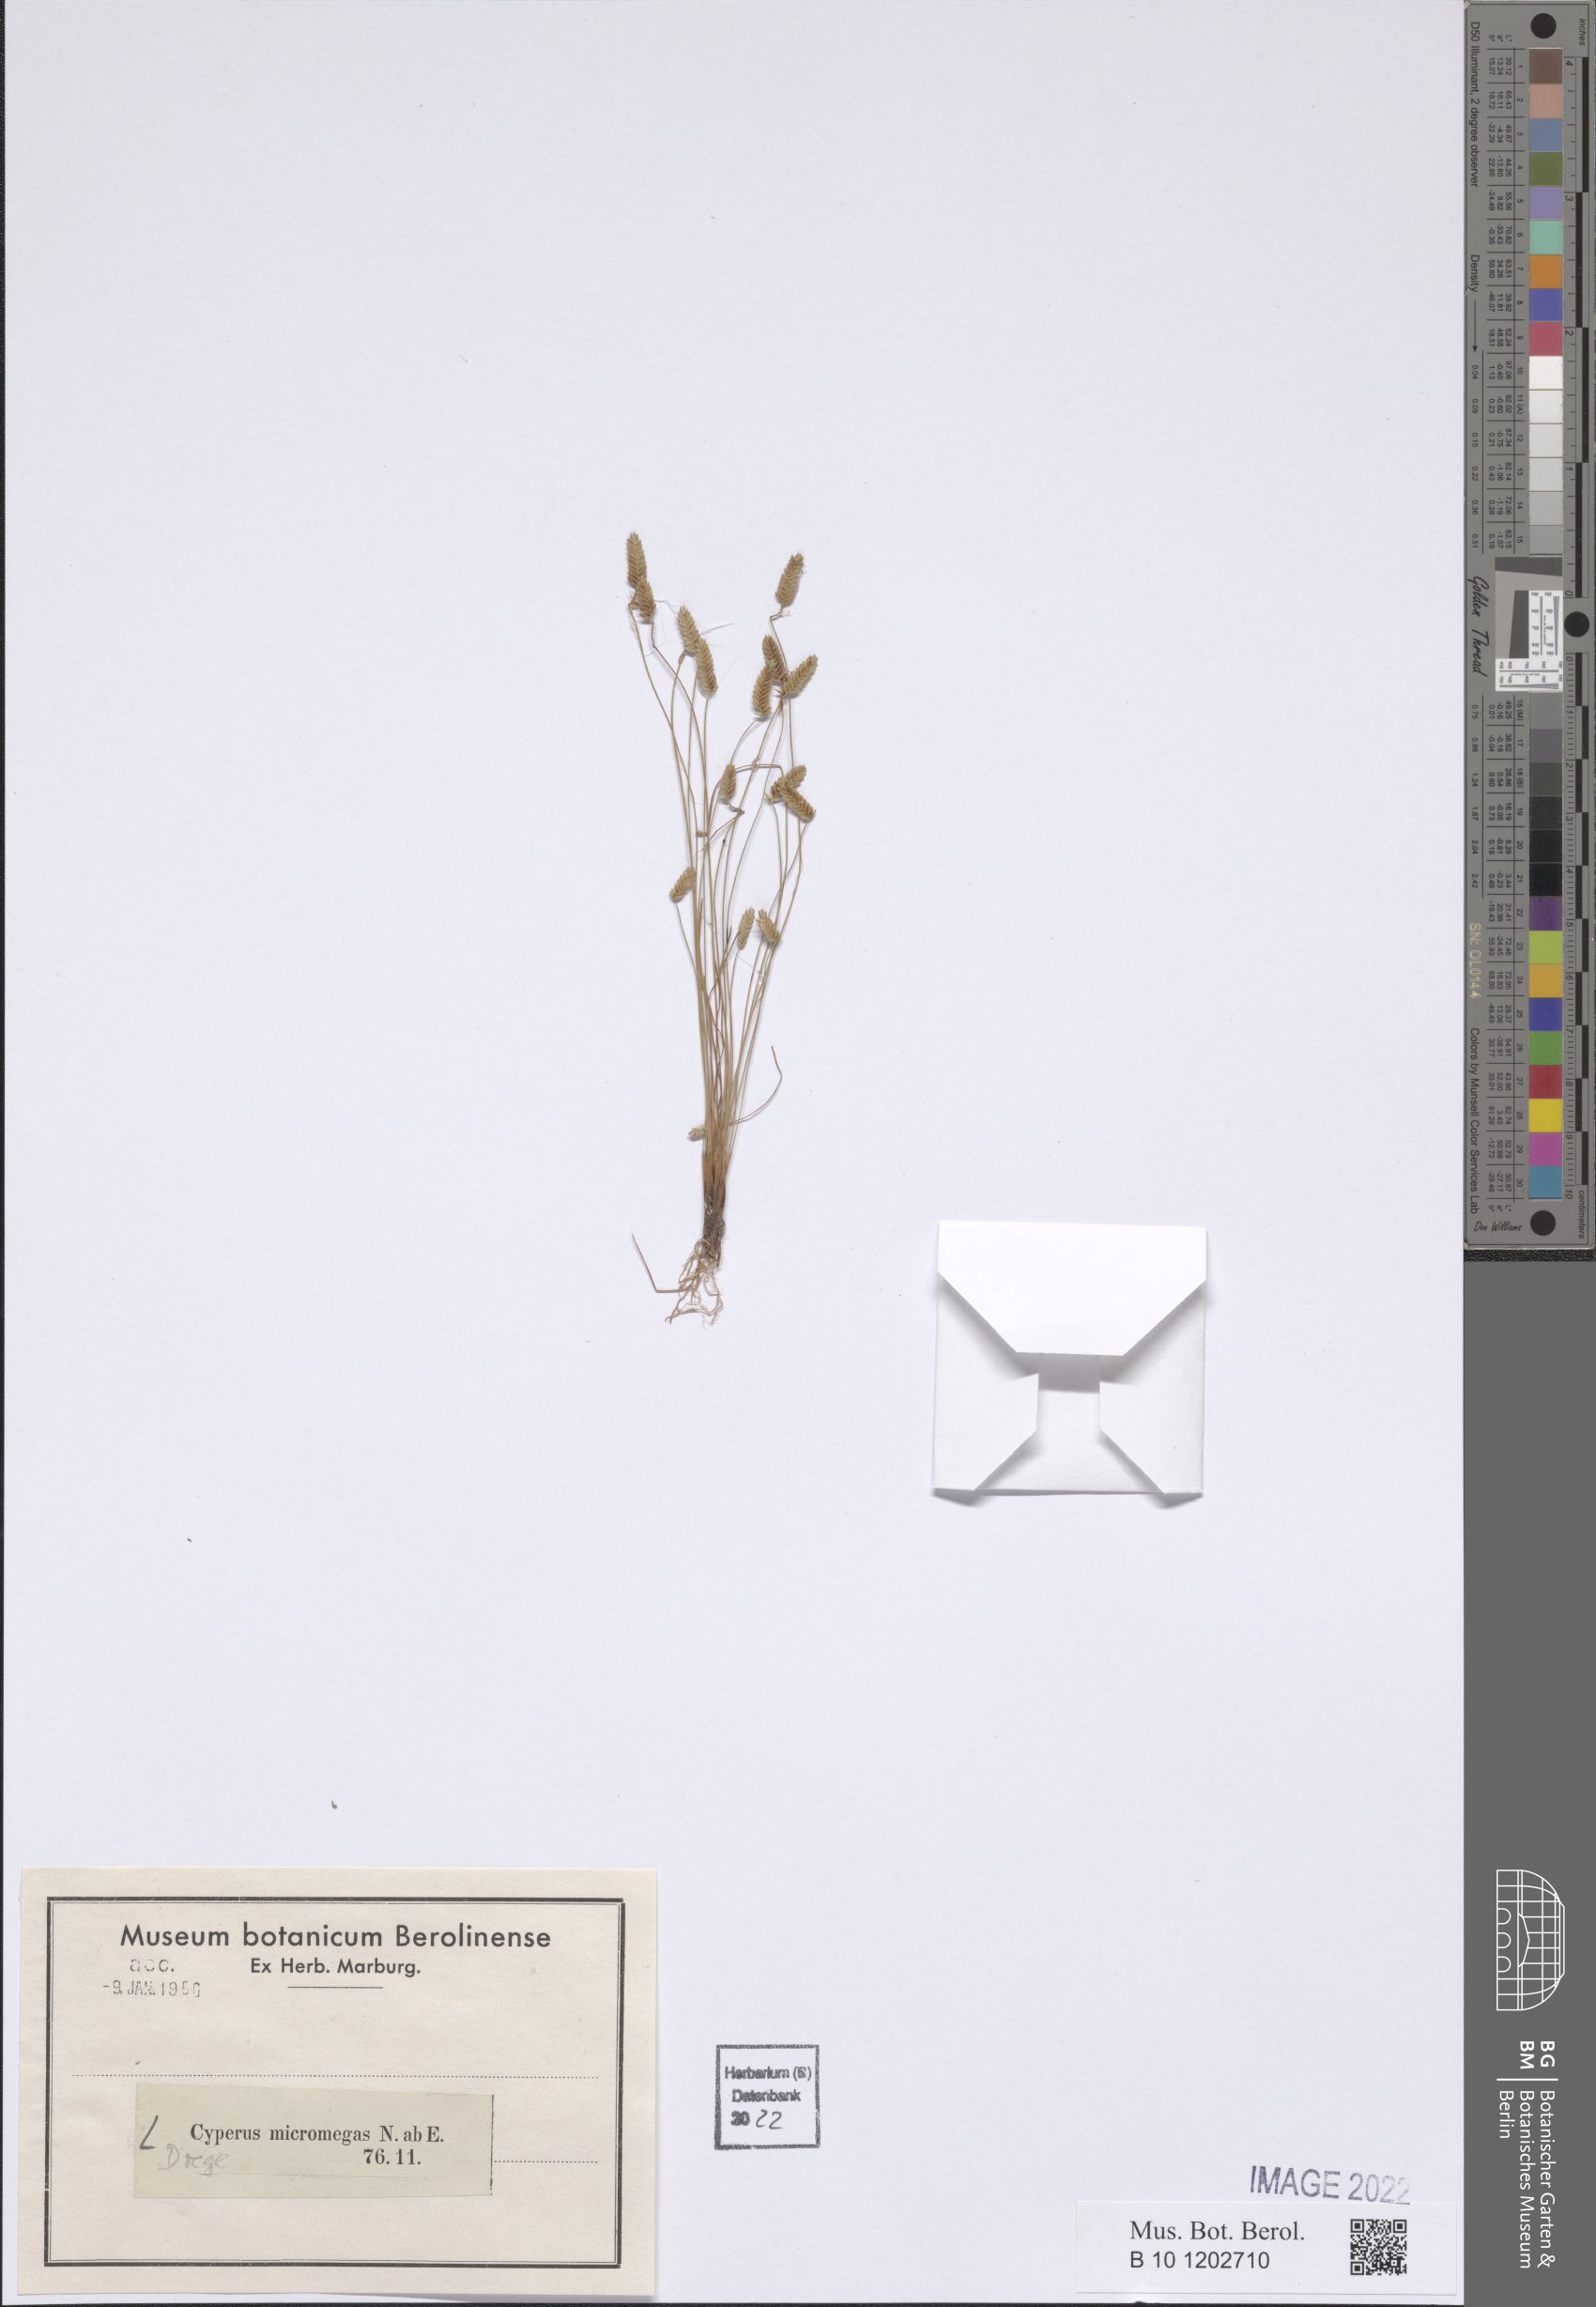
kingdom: Plantae
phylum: Tracheophyta
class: Liliopsida
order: Poales
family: Cyperaceae
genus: Isolepis
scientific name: Isolepis levynsiana
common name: Sedge
